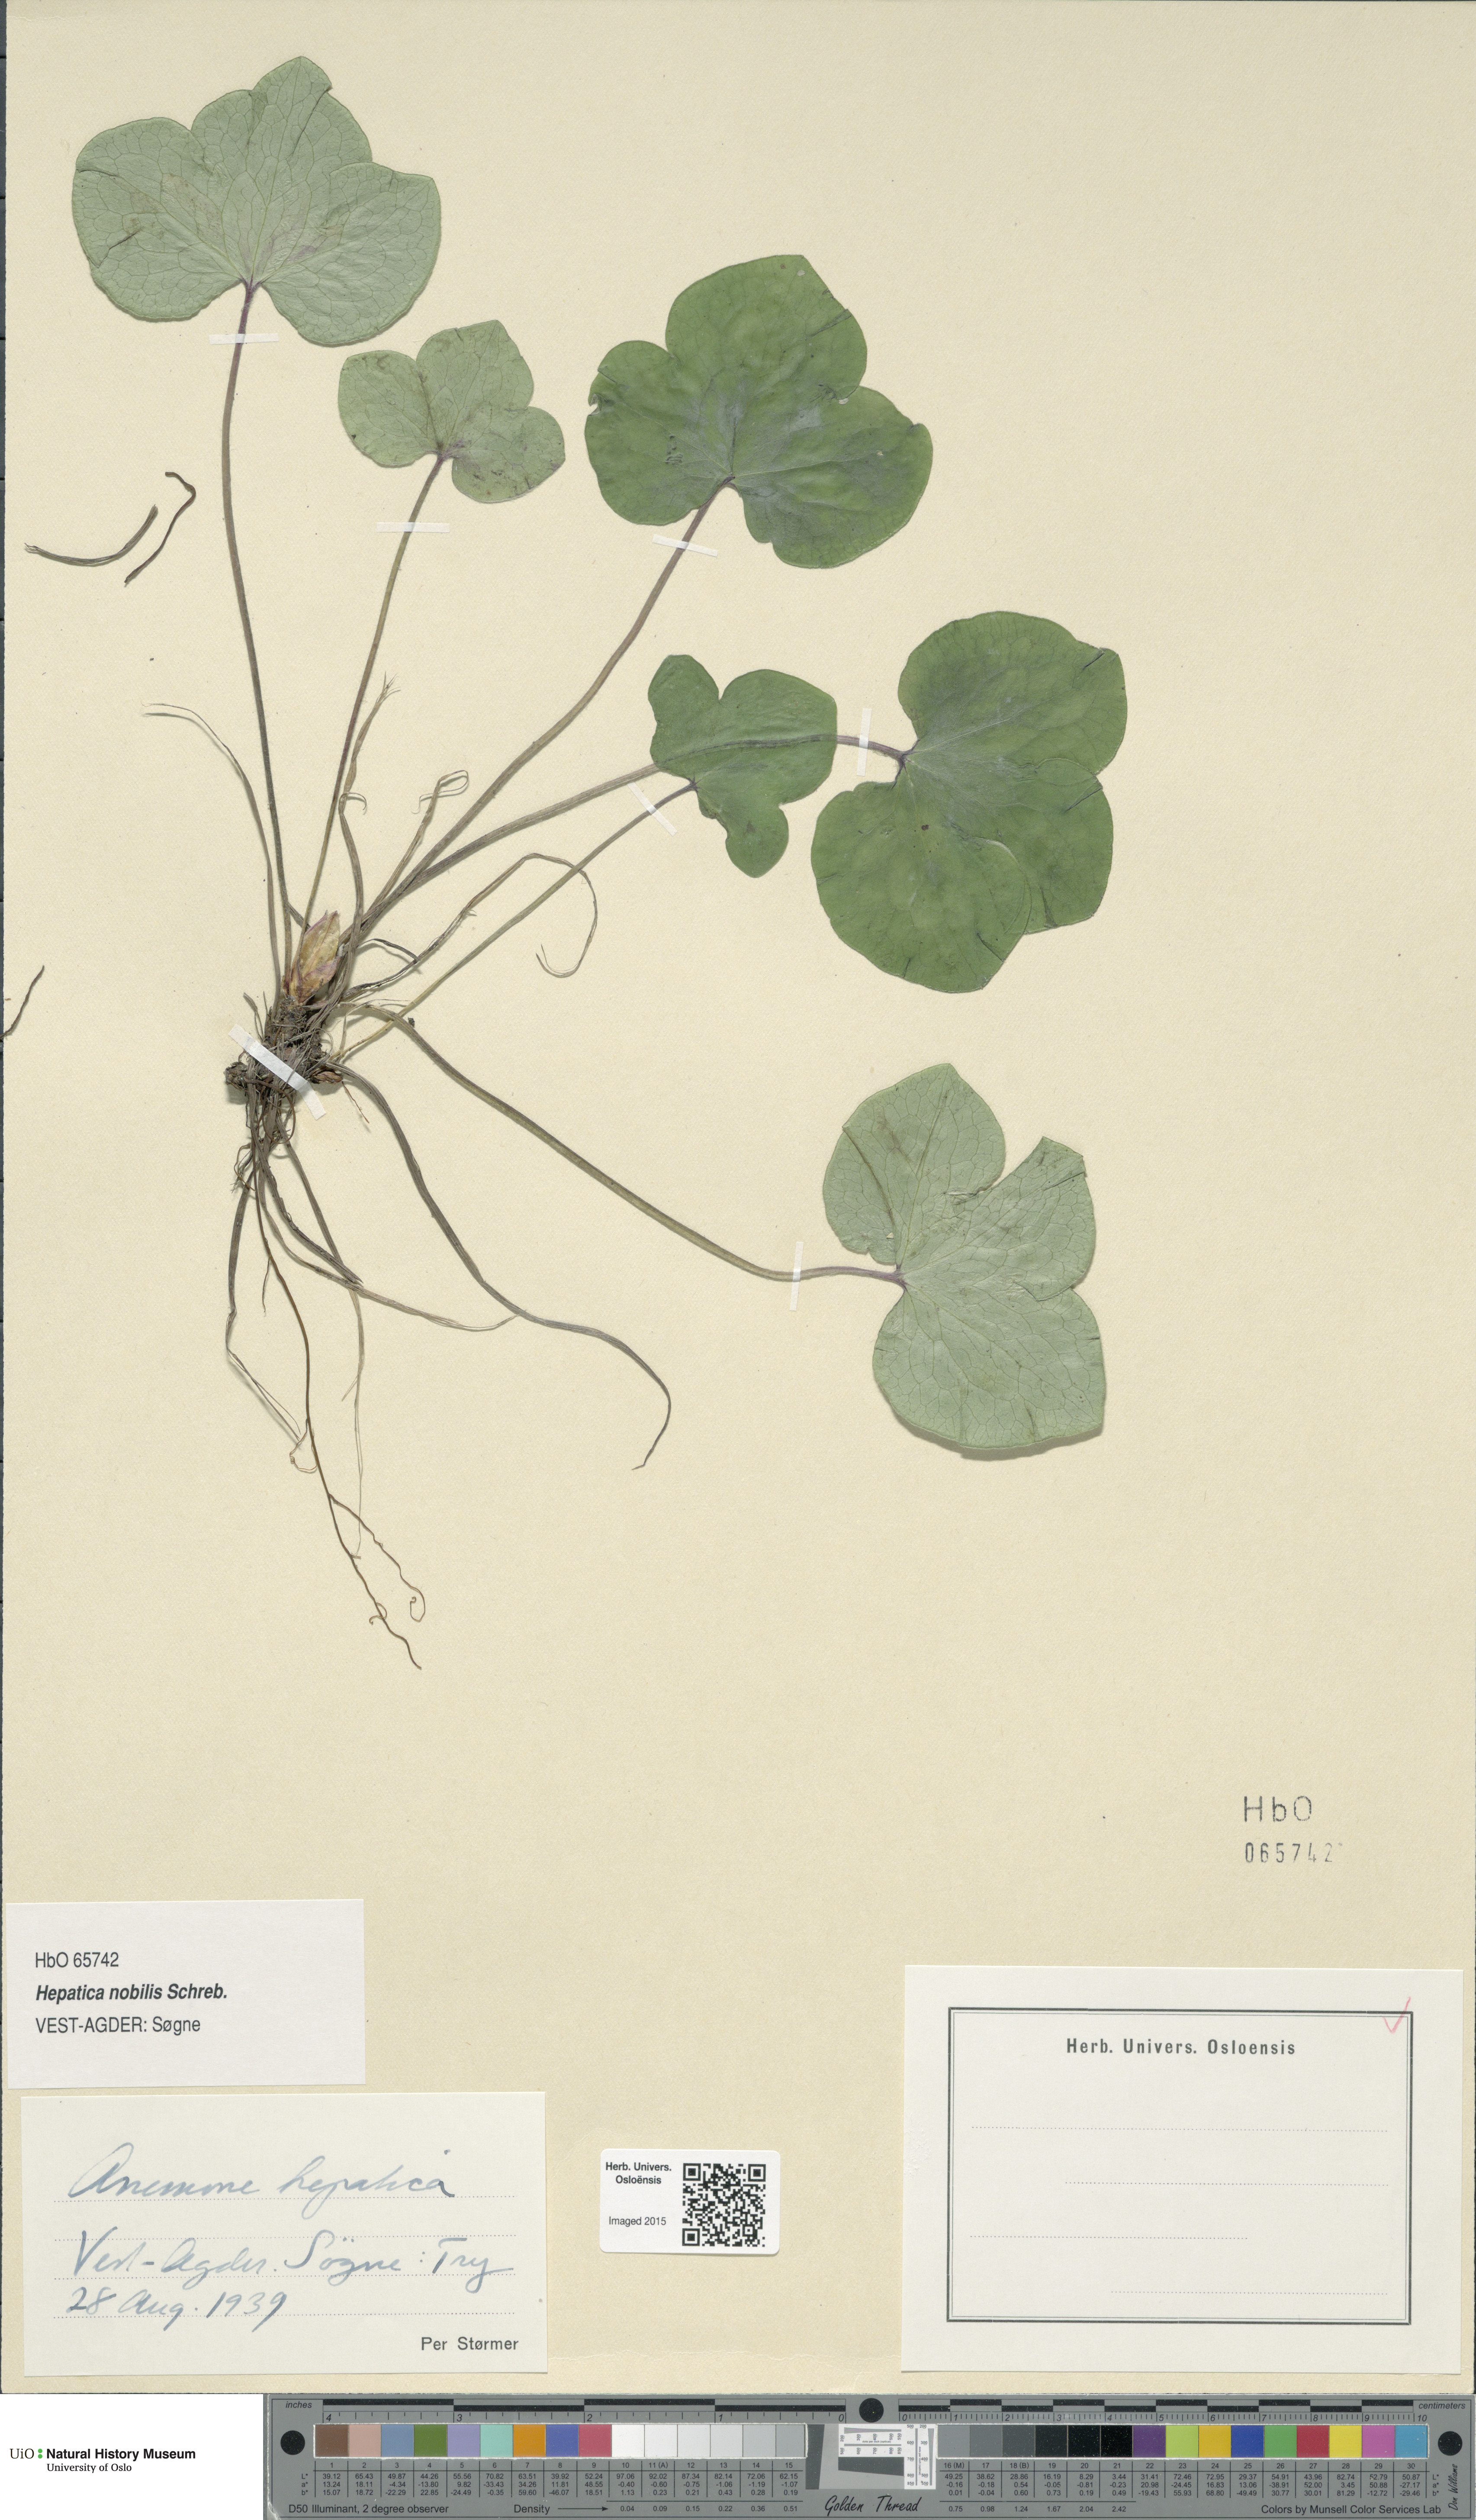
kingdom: Plantae
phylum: Tracheophyta
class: Magnoliopsida
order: Ranunculales
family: Ranunculaceae
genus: Hepatica
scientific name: Hepatica nobilis
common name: Liverleaf
